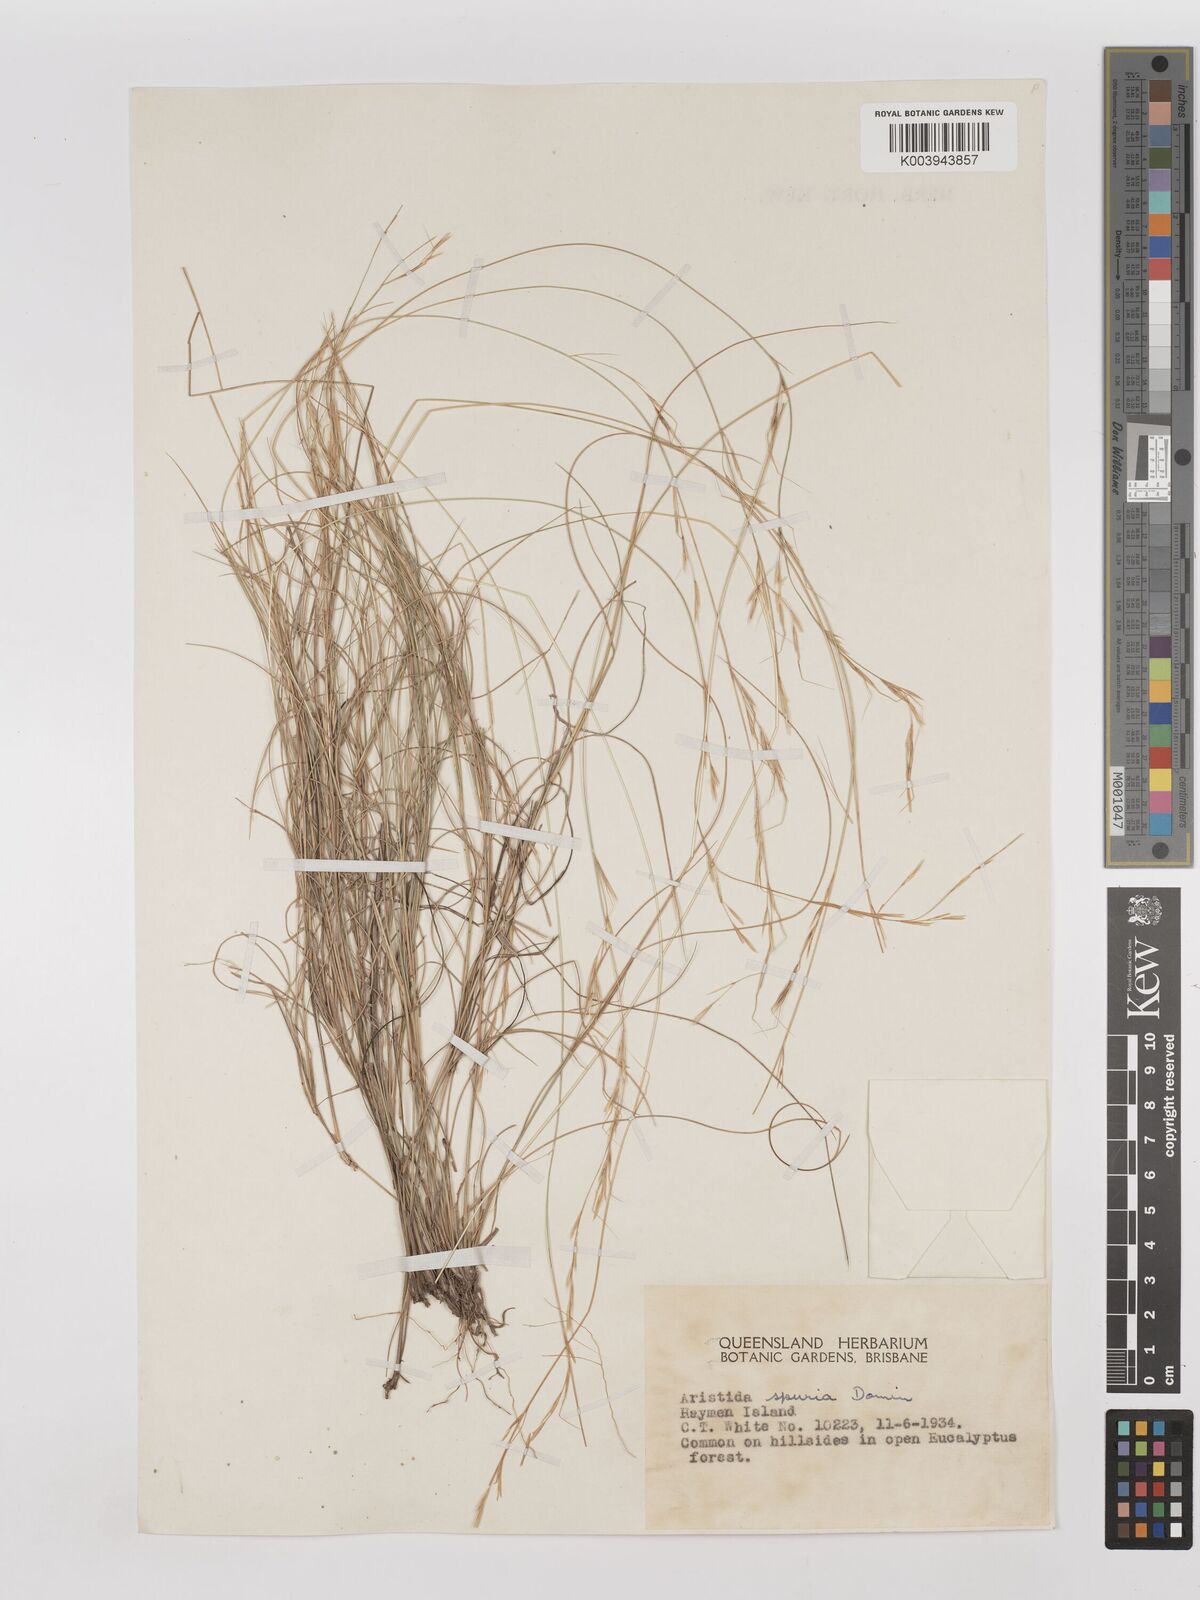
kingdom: Plantae
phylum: Tracheophyta
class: Liliopsida
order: Poales
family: Poaceae
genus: Aristida
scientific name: Aristida spuria
